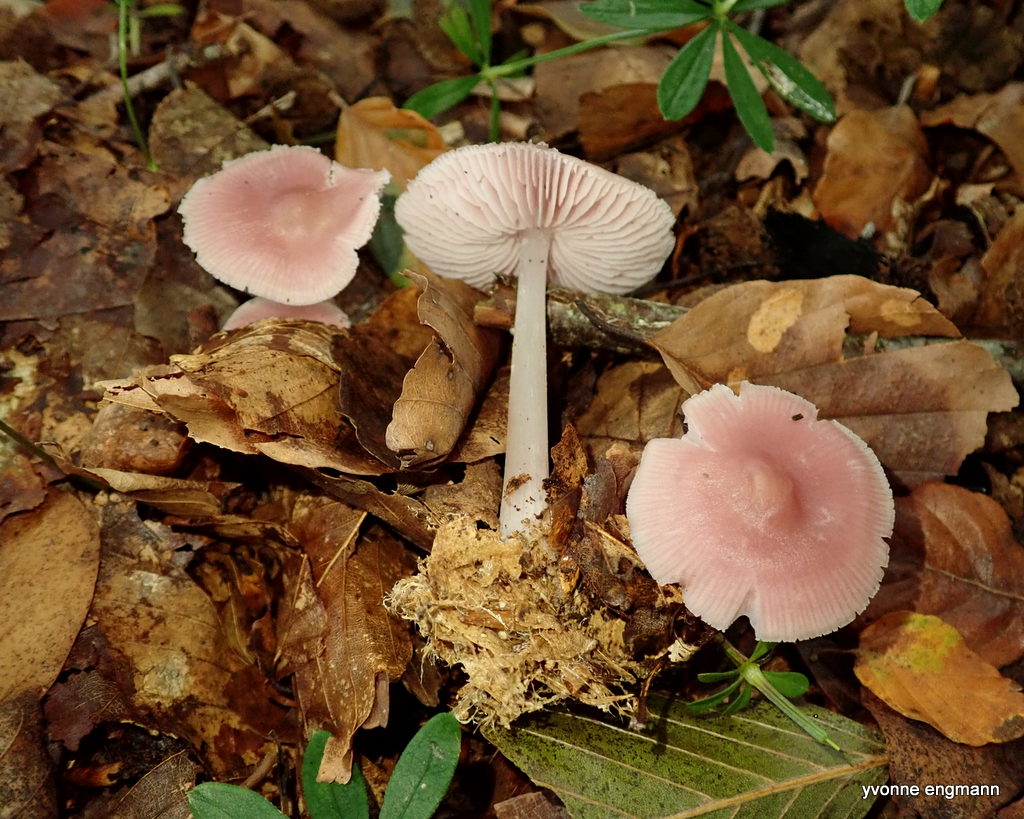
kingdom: Fungi
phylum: Basidiomycota
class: Agaricomycetes
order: Agaricales
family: Mycenaceae
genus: Mycena
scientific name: Mycena rosea
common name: rosa huesvamp
